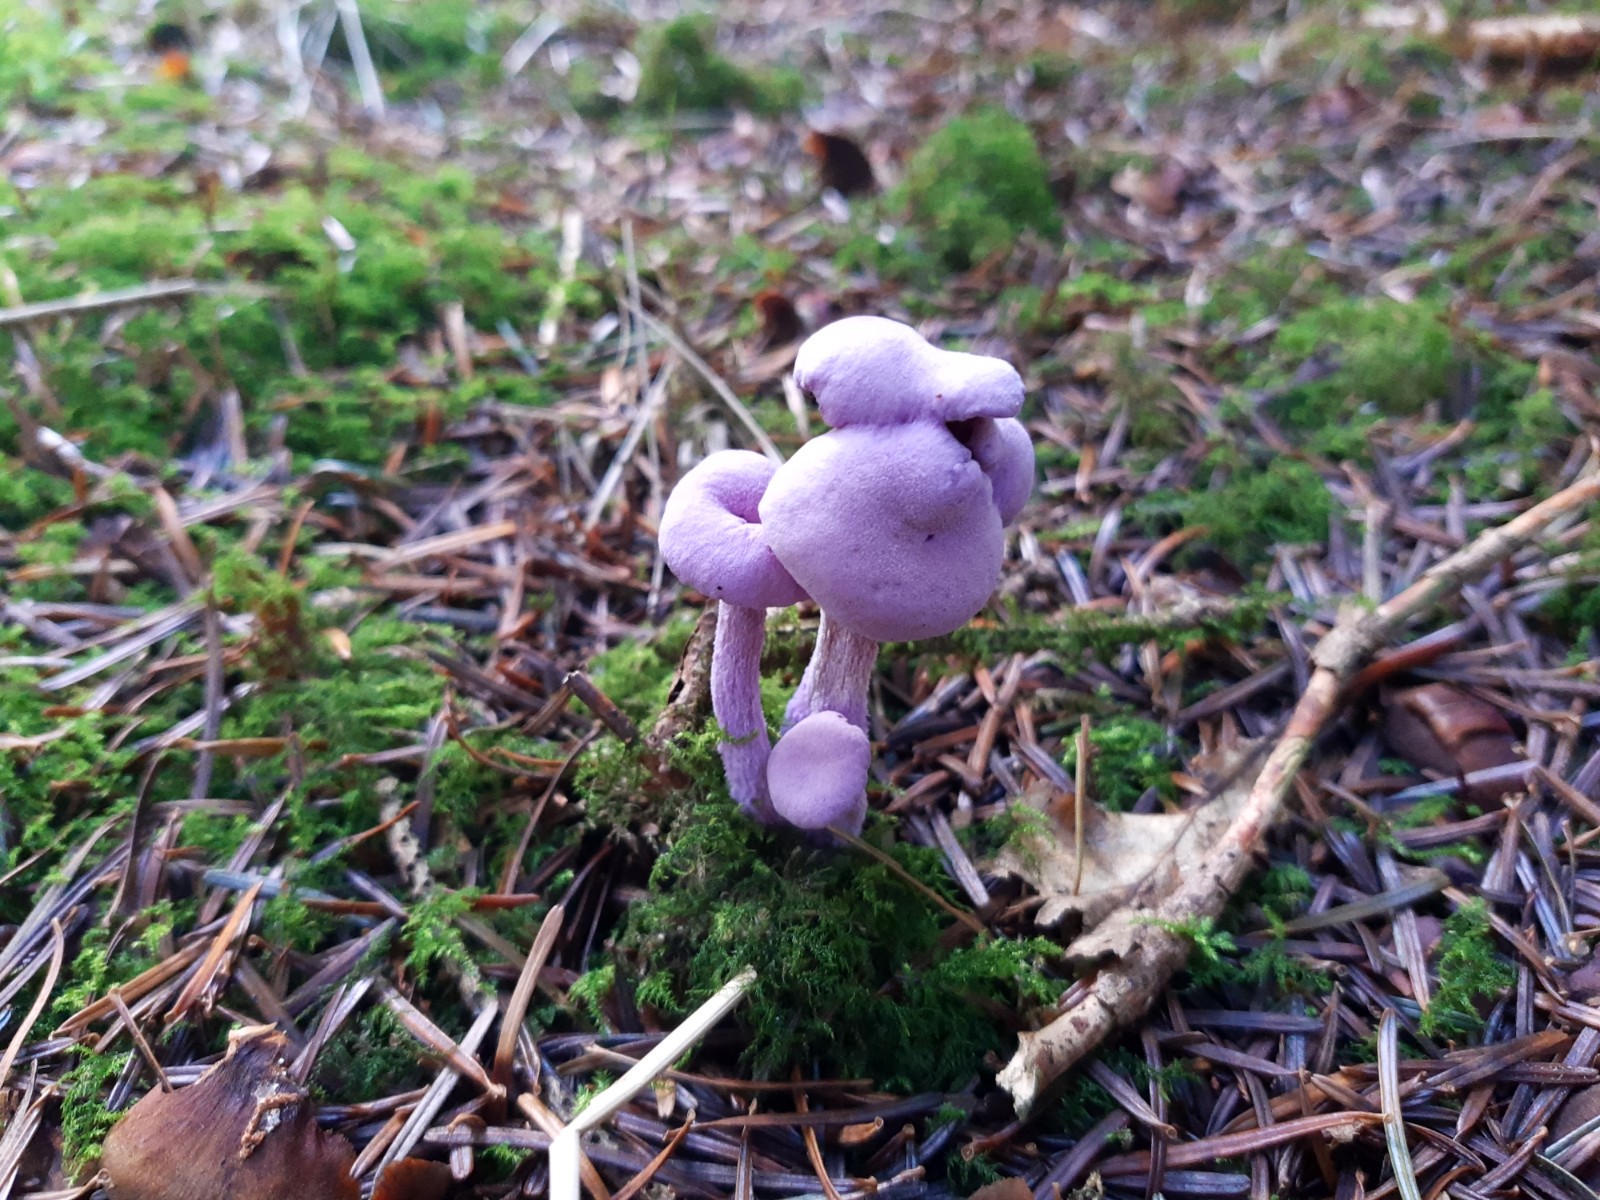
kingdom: Fungi
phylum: Basidiomycota
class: Agaricomycetes
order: Agaricales
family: Hydnangiaceae
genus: Laccaria
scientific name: Laccaria amethystina
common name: violet ametysthat
